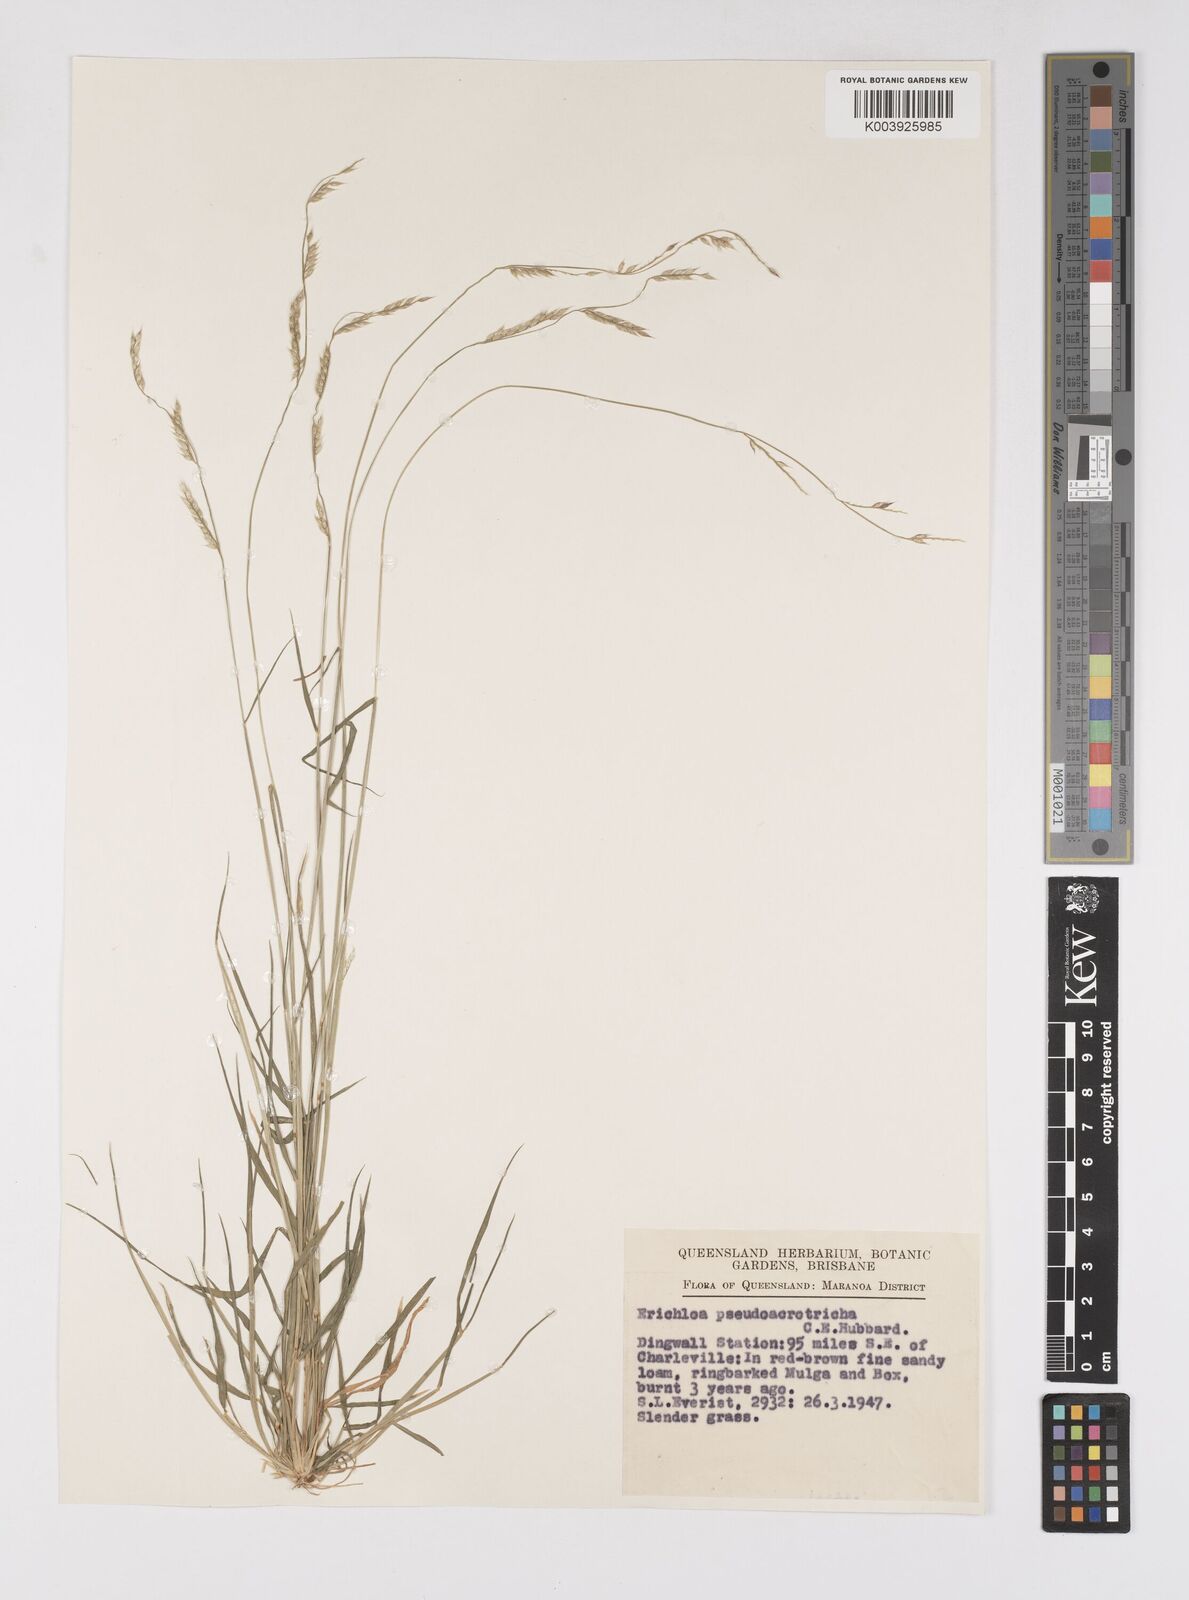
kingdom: Plantae
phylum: Tracheophyta
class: Liliopsida
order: Poales
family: Poaceae
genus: Eriochloa
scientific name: Eriochloa pseudoacrotricha
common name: Perennial cup-grass
